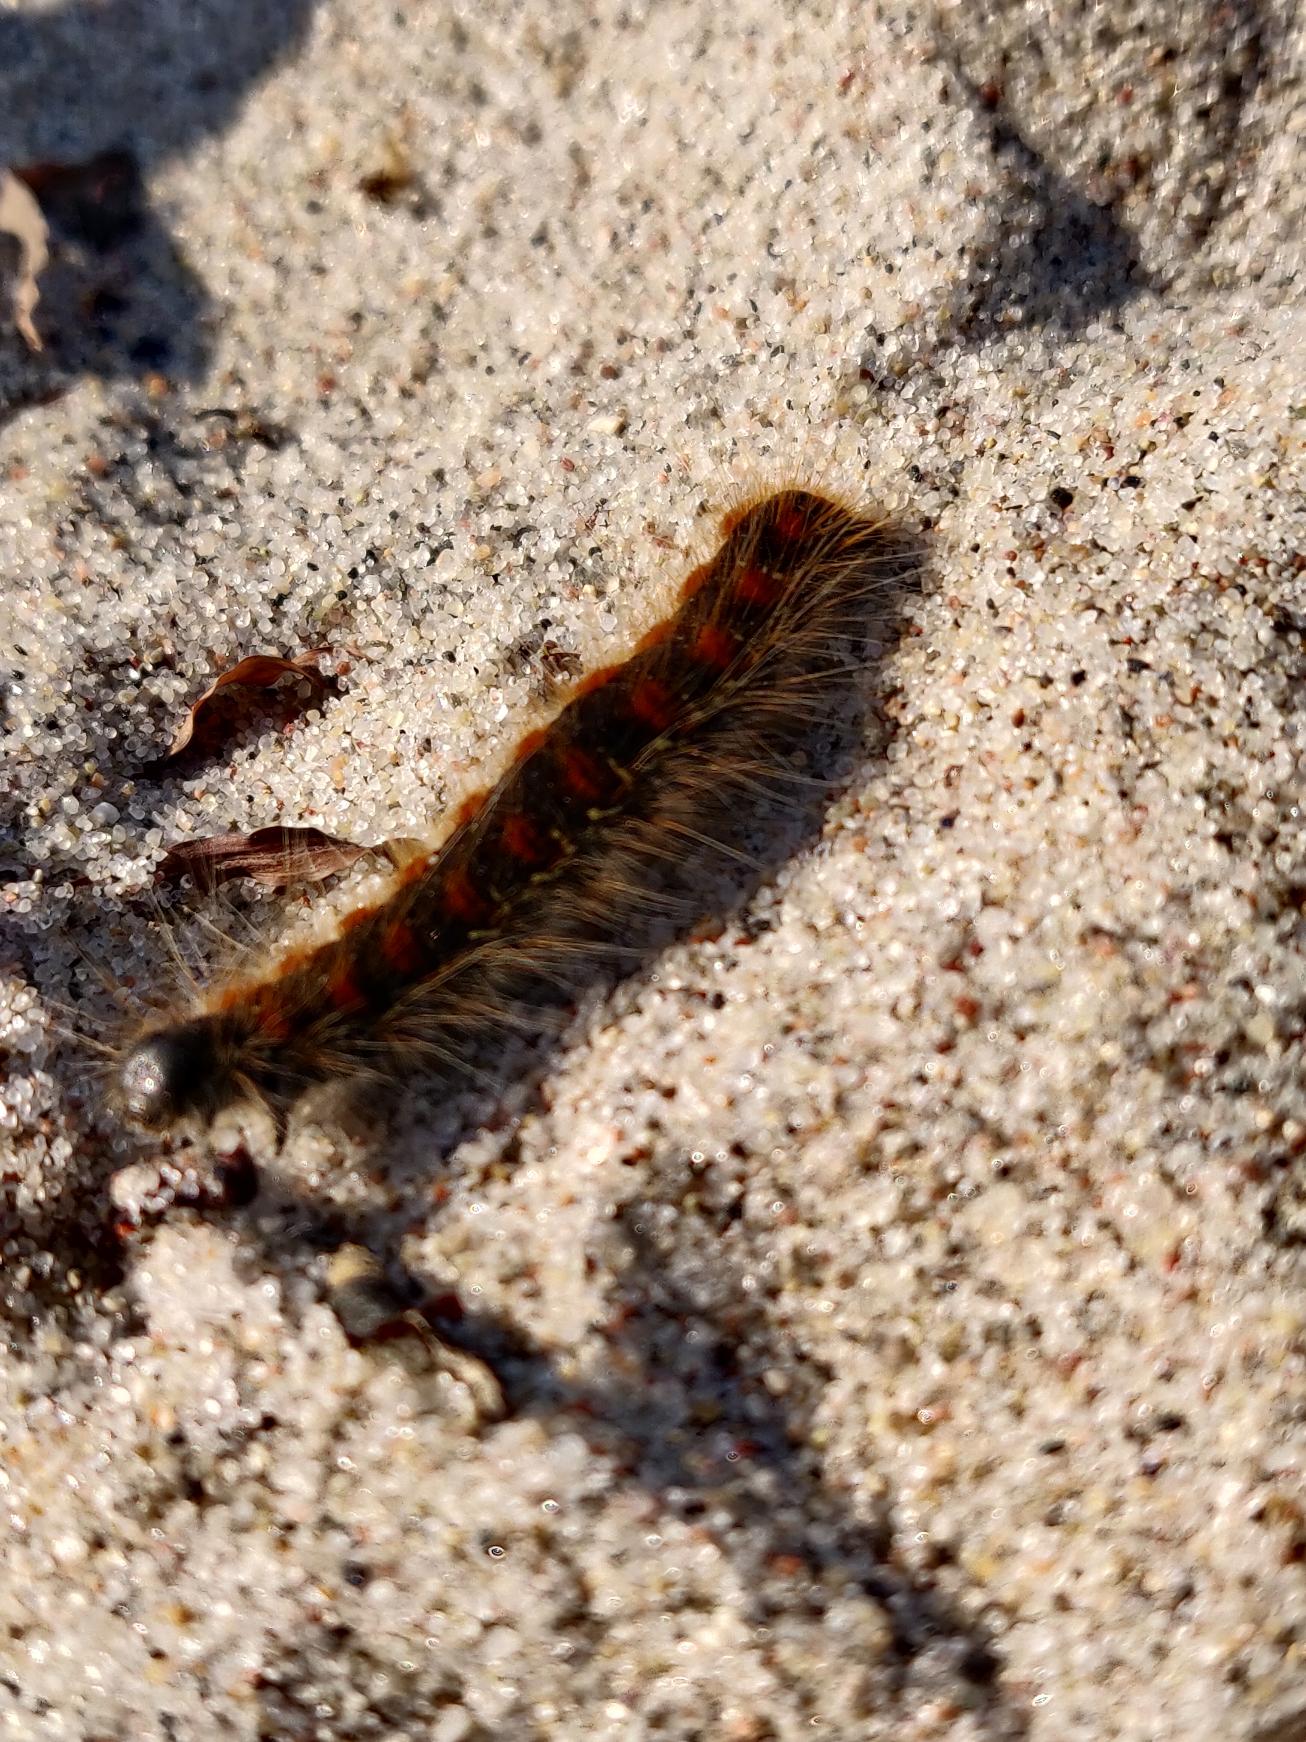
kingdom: Animalia
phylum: Arthropoda
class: Insecta
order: Lepidoptera
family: Lasiocampidae
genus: Eriogaster
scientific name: Eriogaster lanestris
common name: Uldhale
